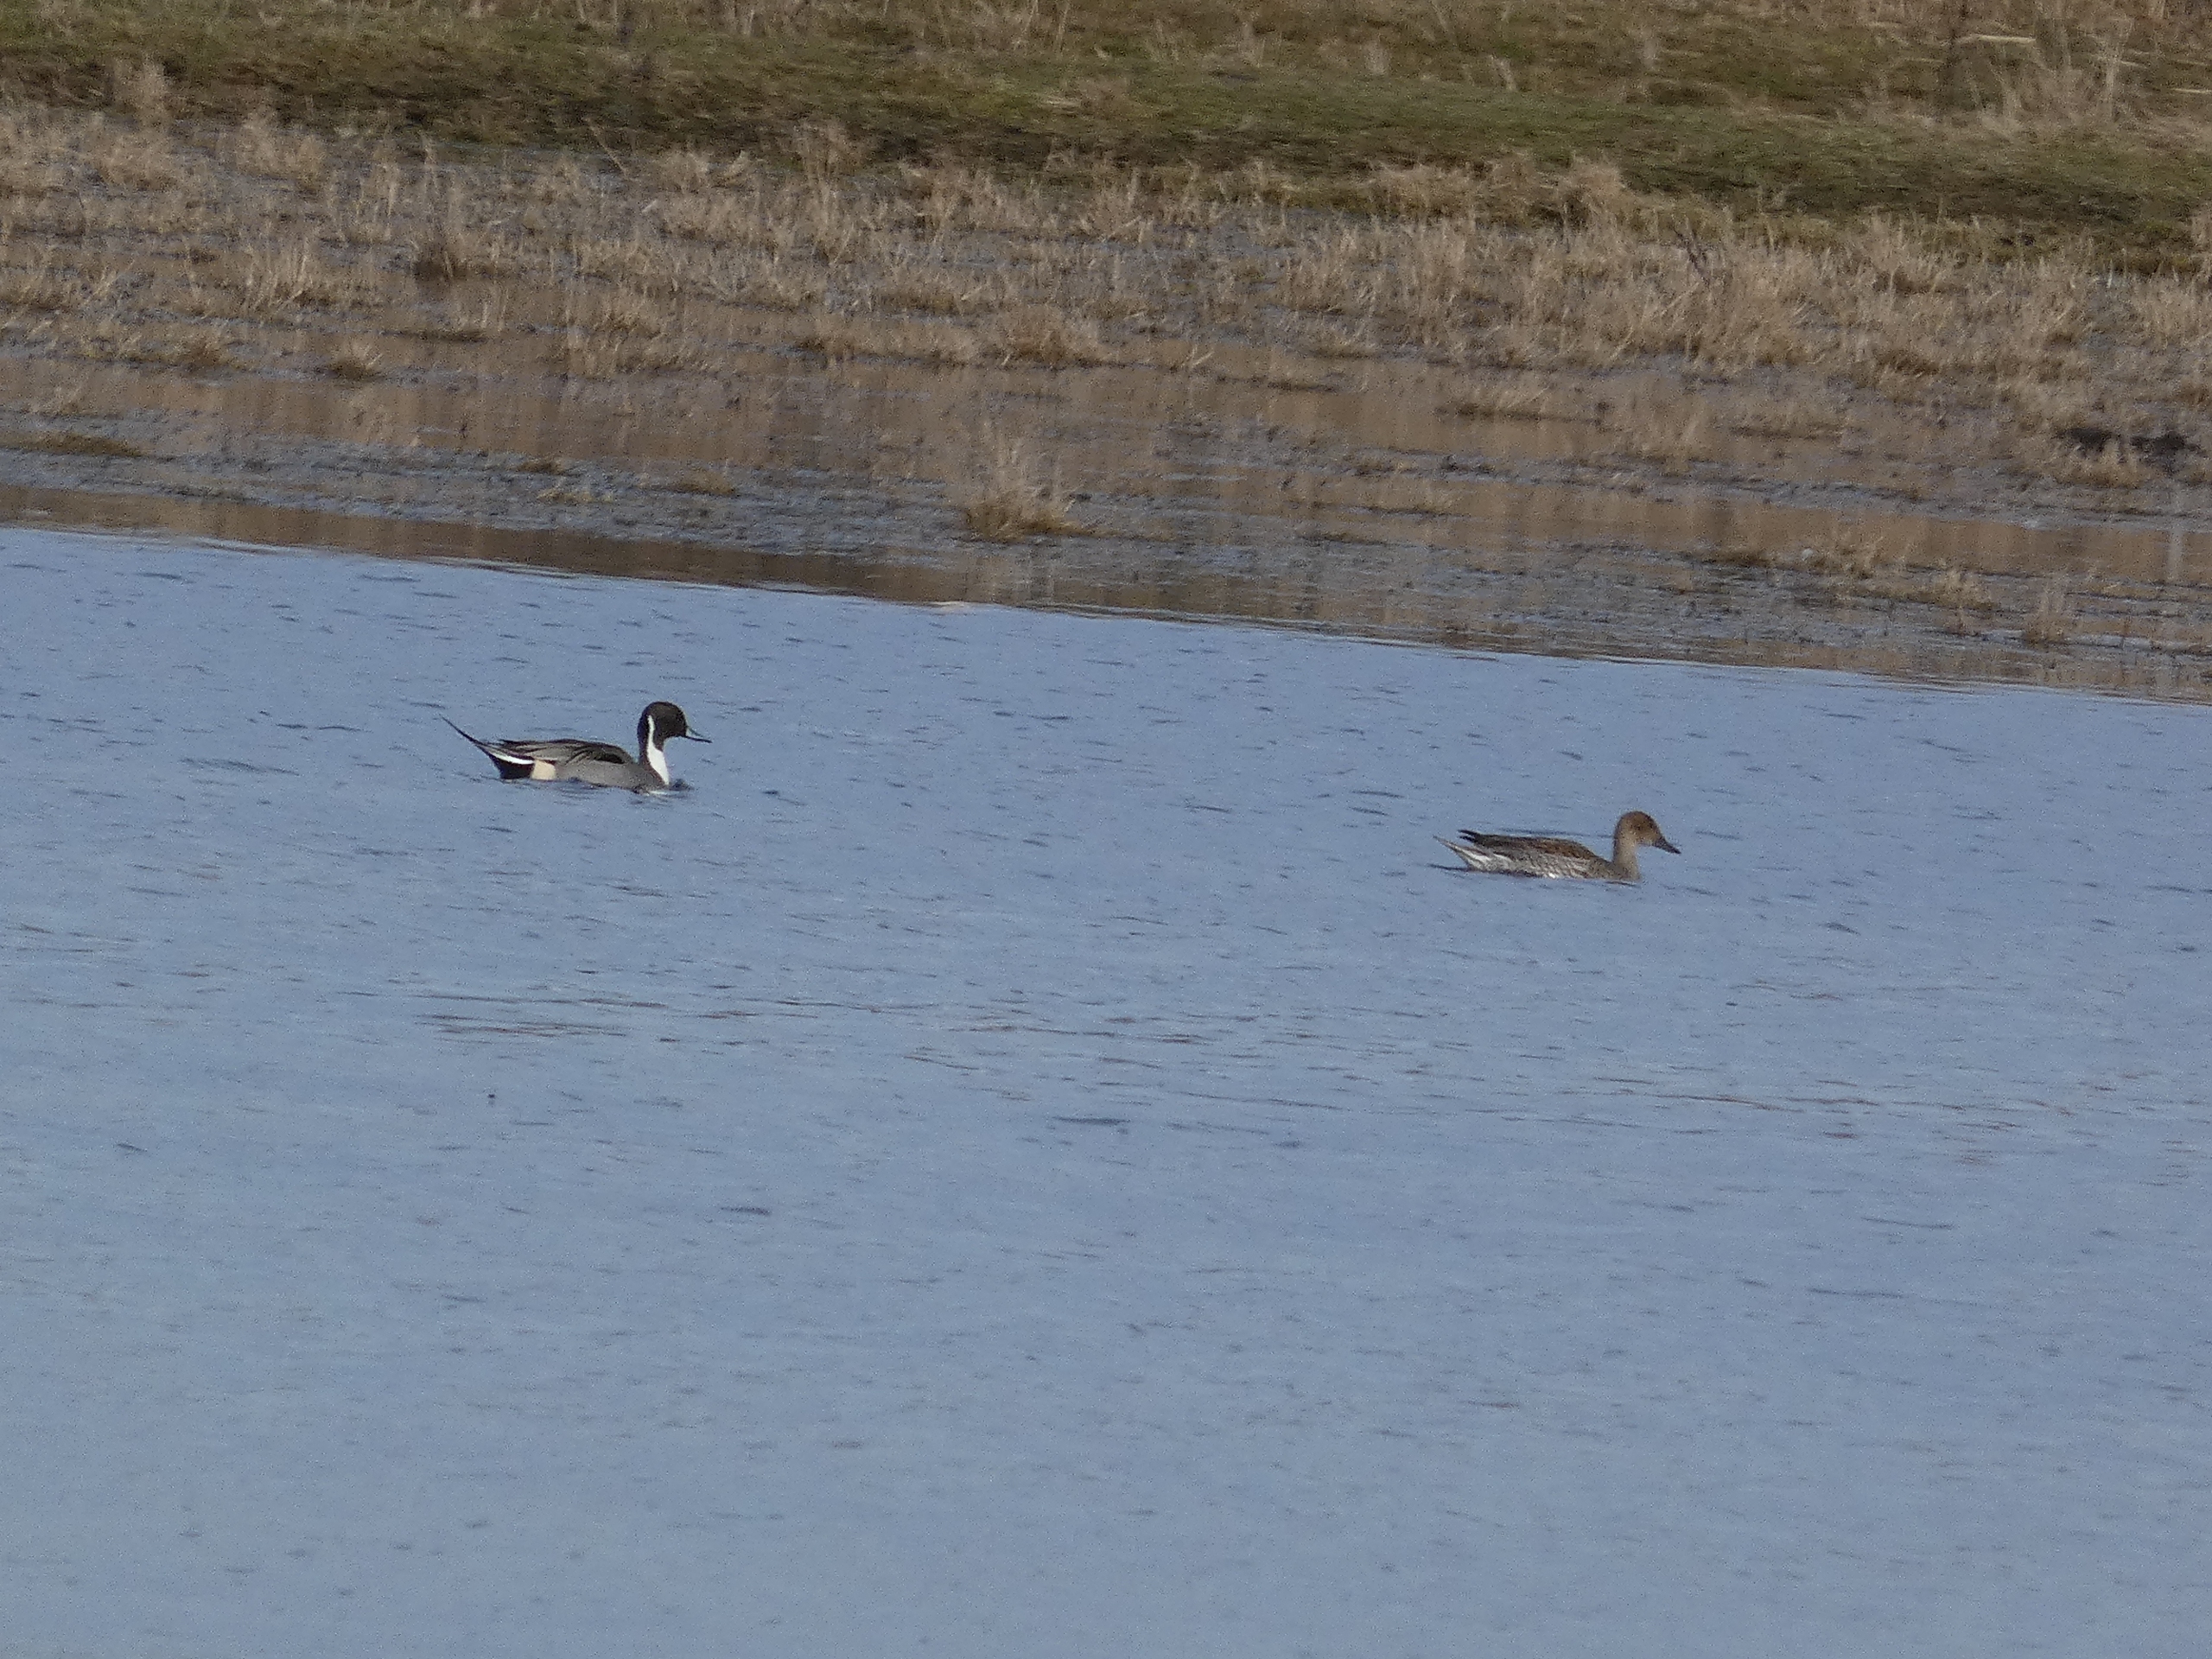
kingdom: Animalia
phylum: Chordata
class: Aves
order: Anseriformes
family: Anatidae
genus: Anas
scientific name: Anas acuta
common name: Spidsand
